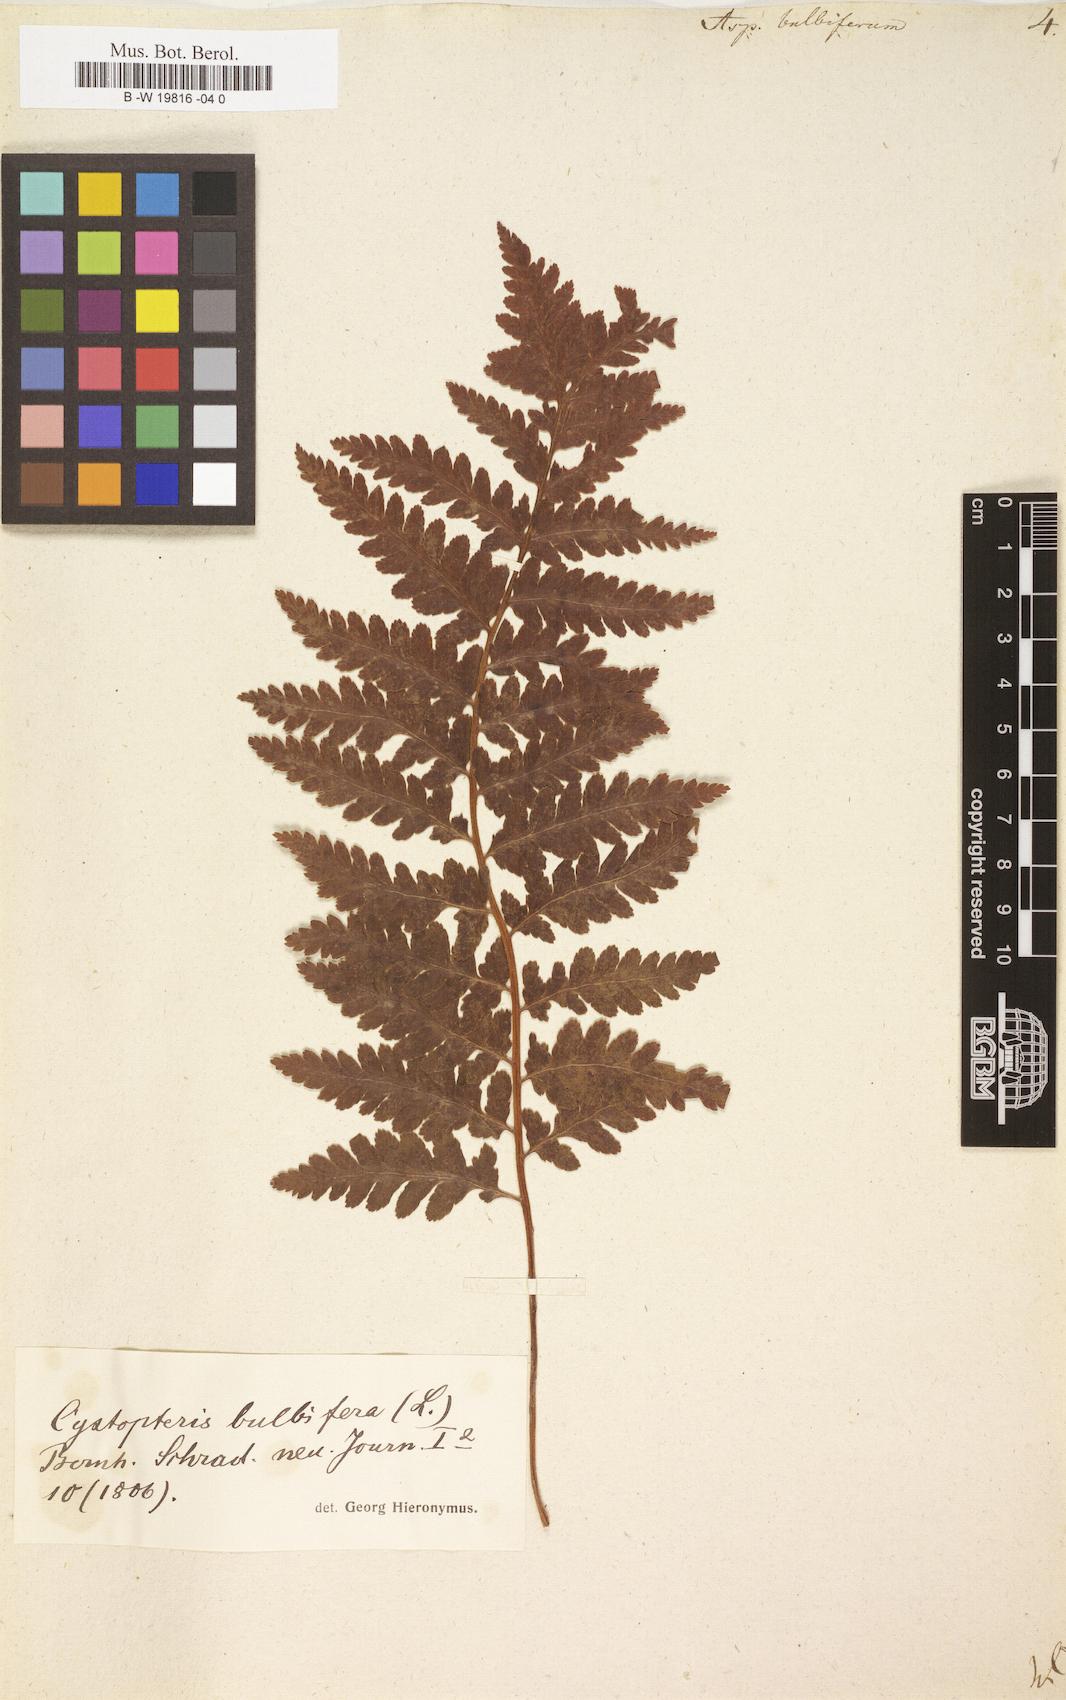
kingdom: Plantae
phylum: Tracheophyta
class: Polypodiopsida
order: Polypodiales
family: Cystopteridaceae
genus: Cystopteris
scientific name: Cystopteris bulbifera
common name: Bulblet bladder fern
